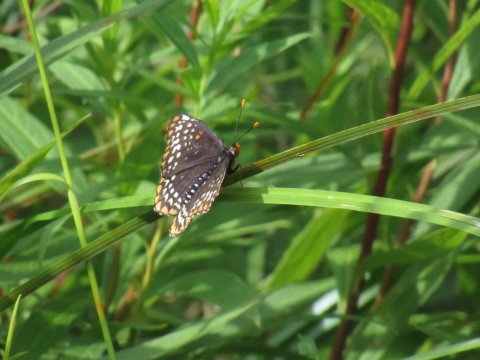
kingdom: Animalia
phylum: Arthropoda
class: Insecta
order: Lepidoptera
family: Nymphalidae
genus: Euphydryas
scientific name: Euphydryas phaeton
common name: Baltimore Checkerspot
